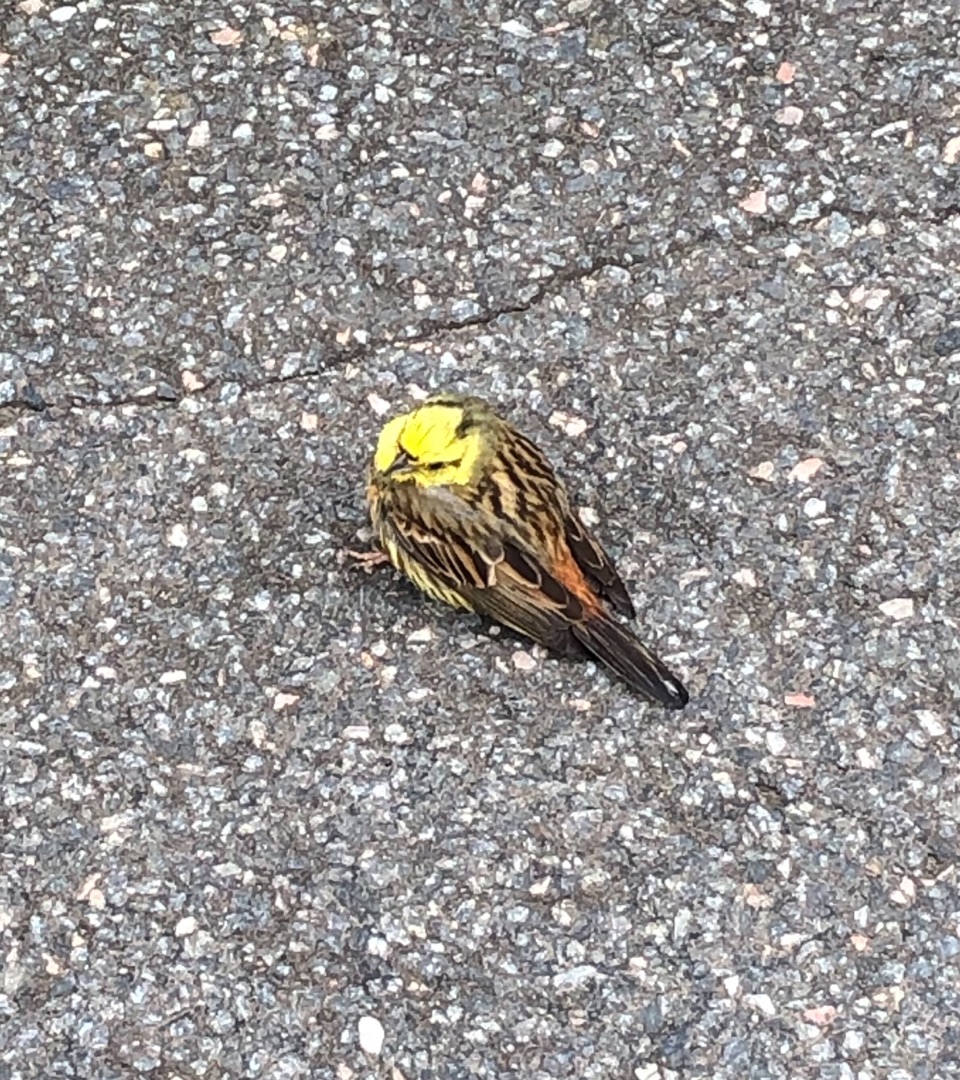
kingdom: Animalia
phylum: Chordata
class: Aves
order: Passeriformes
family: Emberizidae
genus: Emberiza
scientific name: Emberiza citrinella
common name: Gulspurv
